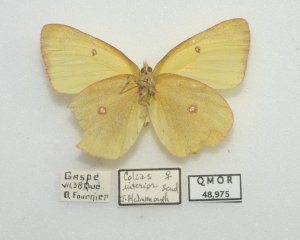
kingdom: Animalia
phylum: Arthropoda
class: Insecta
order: Lepidoptera
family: Pieridae
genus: Colias
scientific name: Colias interior
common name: Pink-edged Sulphur
